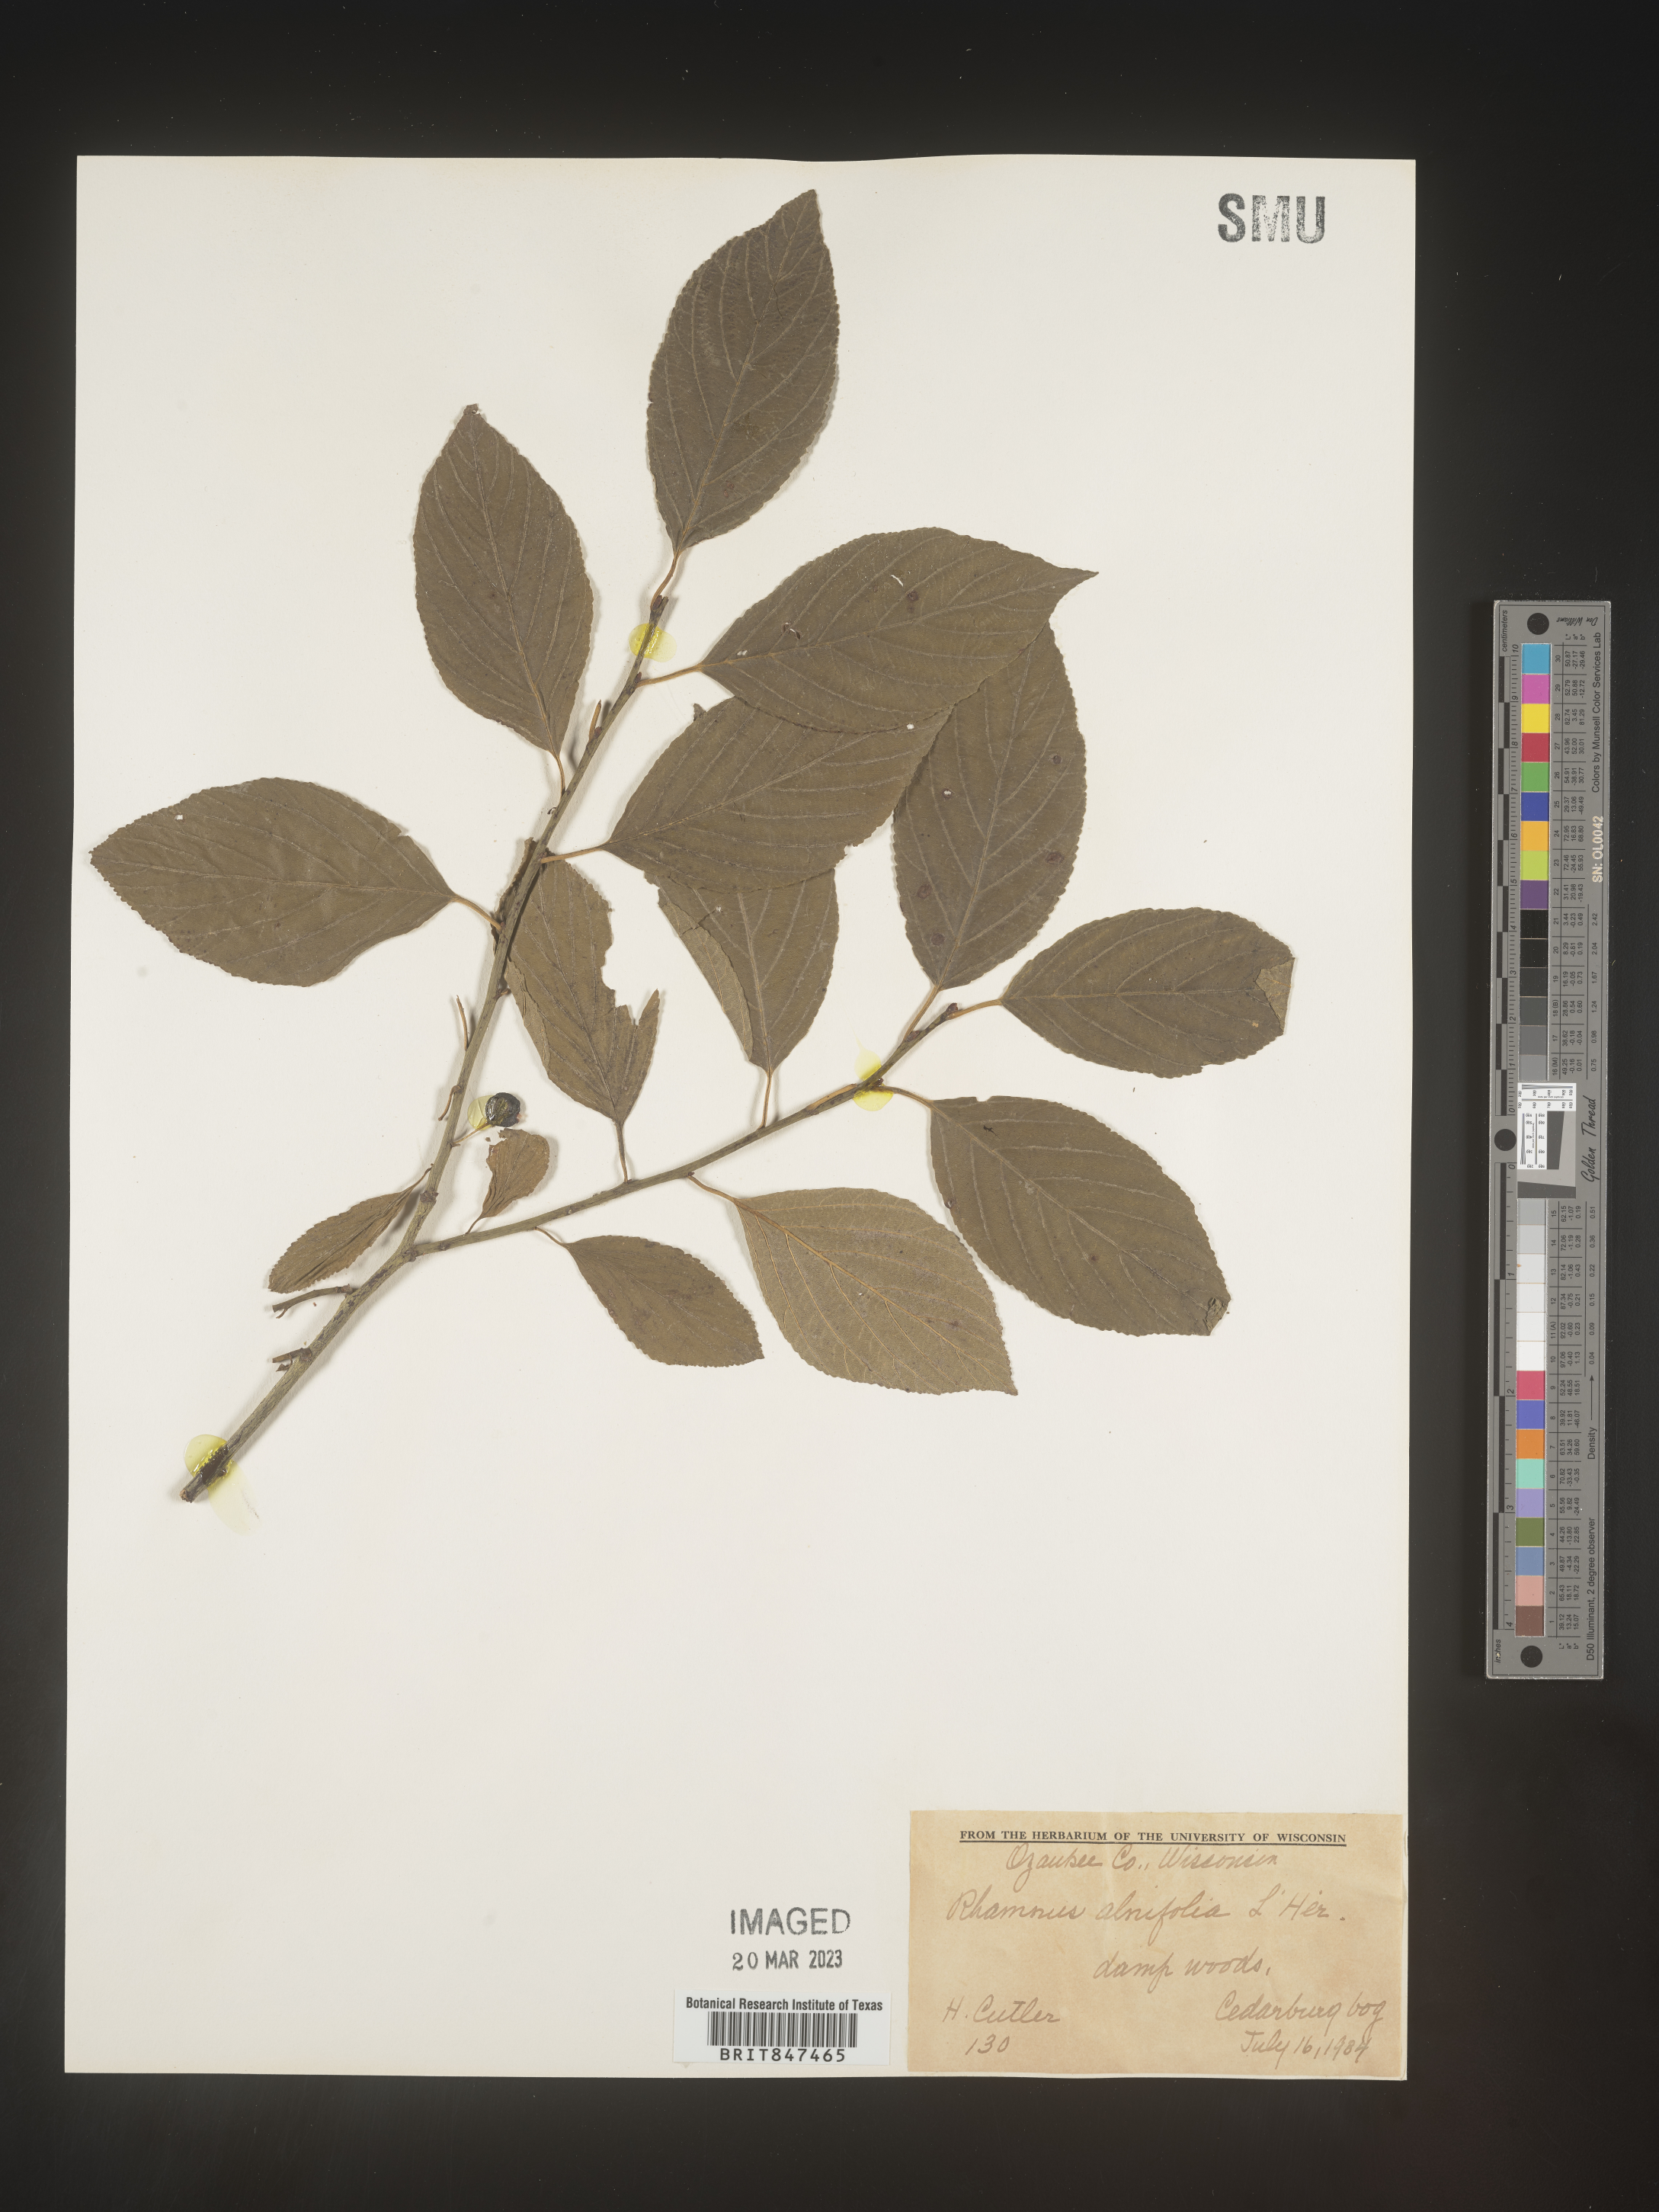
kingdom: Plantae
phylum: Tracheophyta
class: Magnoliopsida
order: Rosales
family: Rhamnaceae
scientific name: Rhamnaceae
